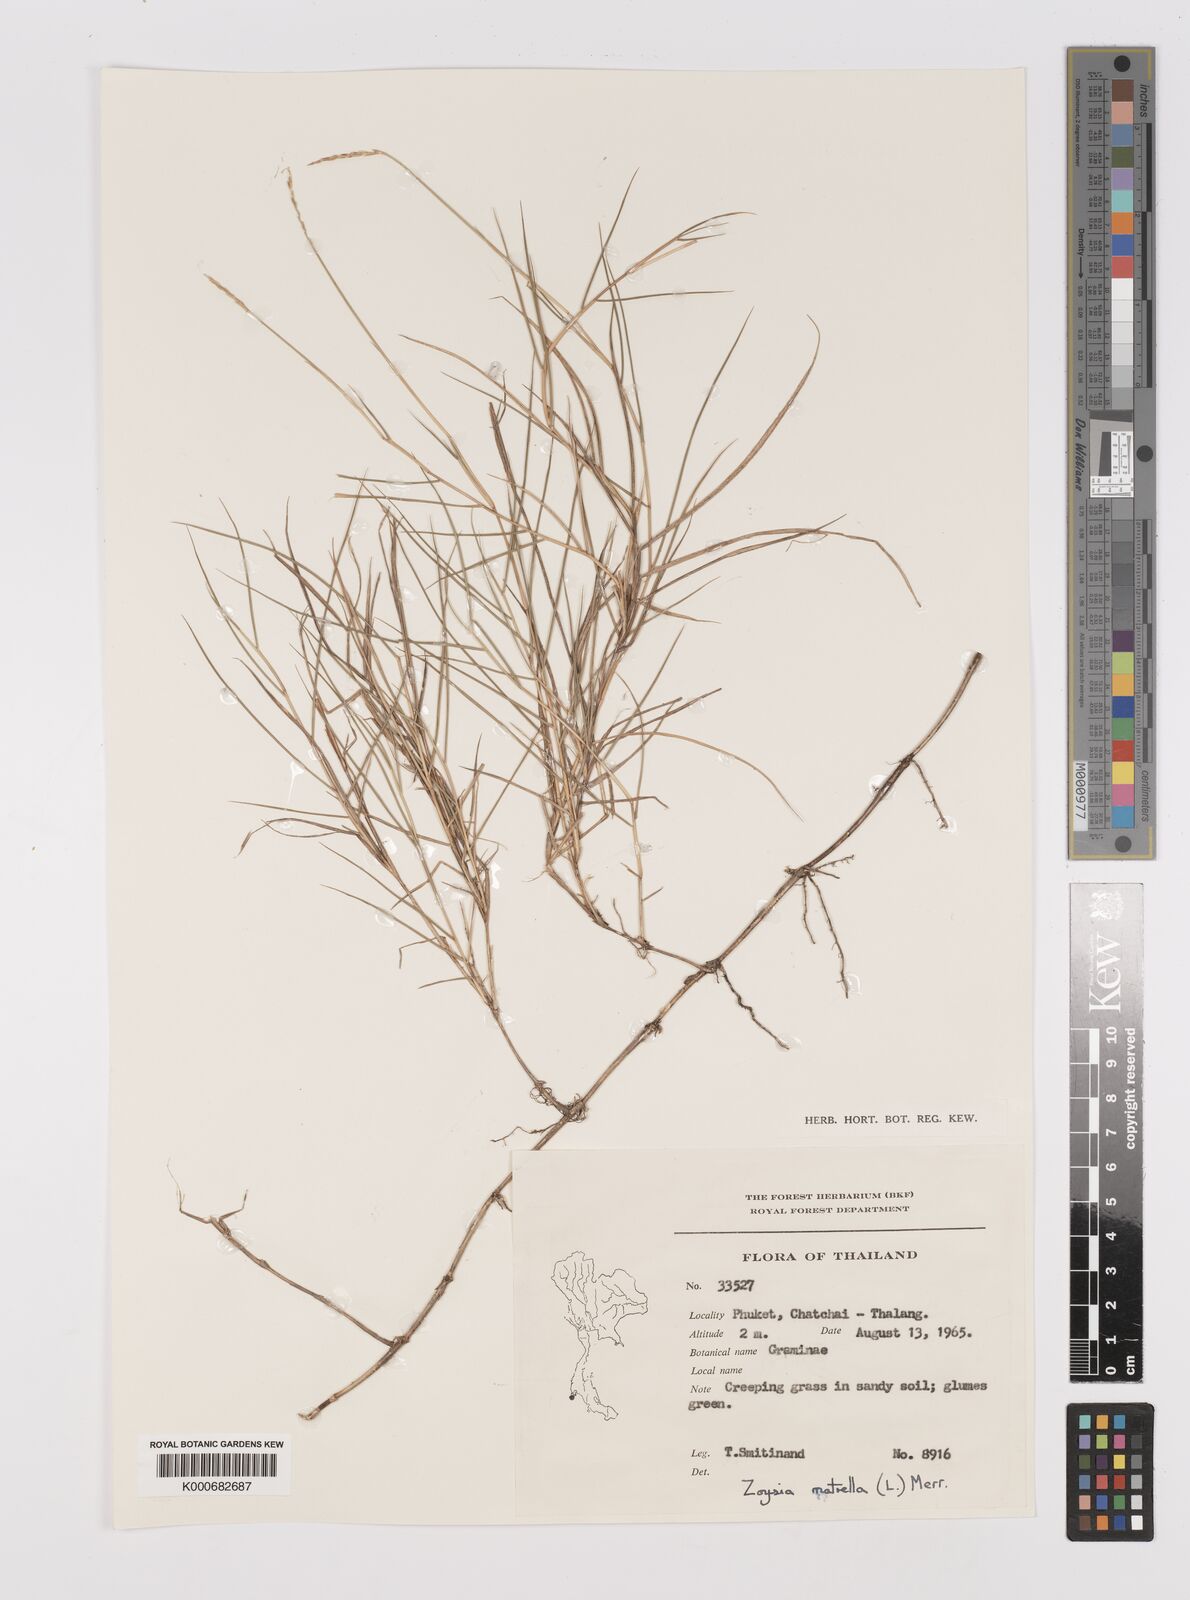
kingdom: Plantae
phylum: Tracheophyta
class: Liliopsida
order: Poales
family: Poaceae
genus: Zoysia
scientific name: Zoysia matrella
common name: Manila grass
